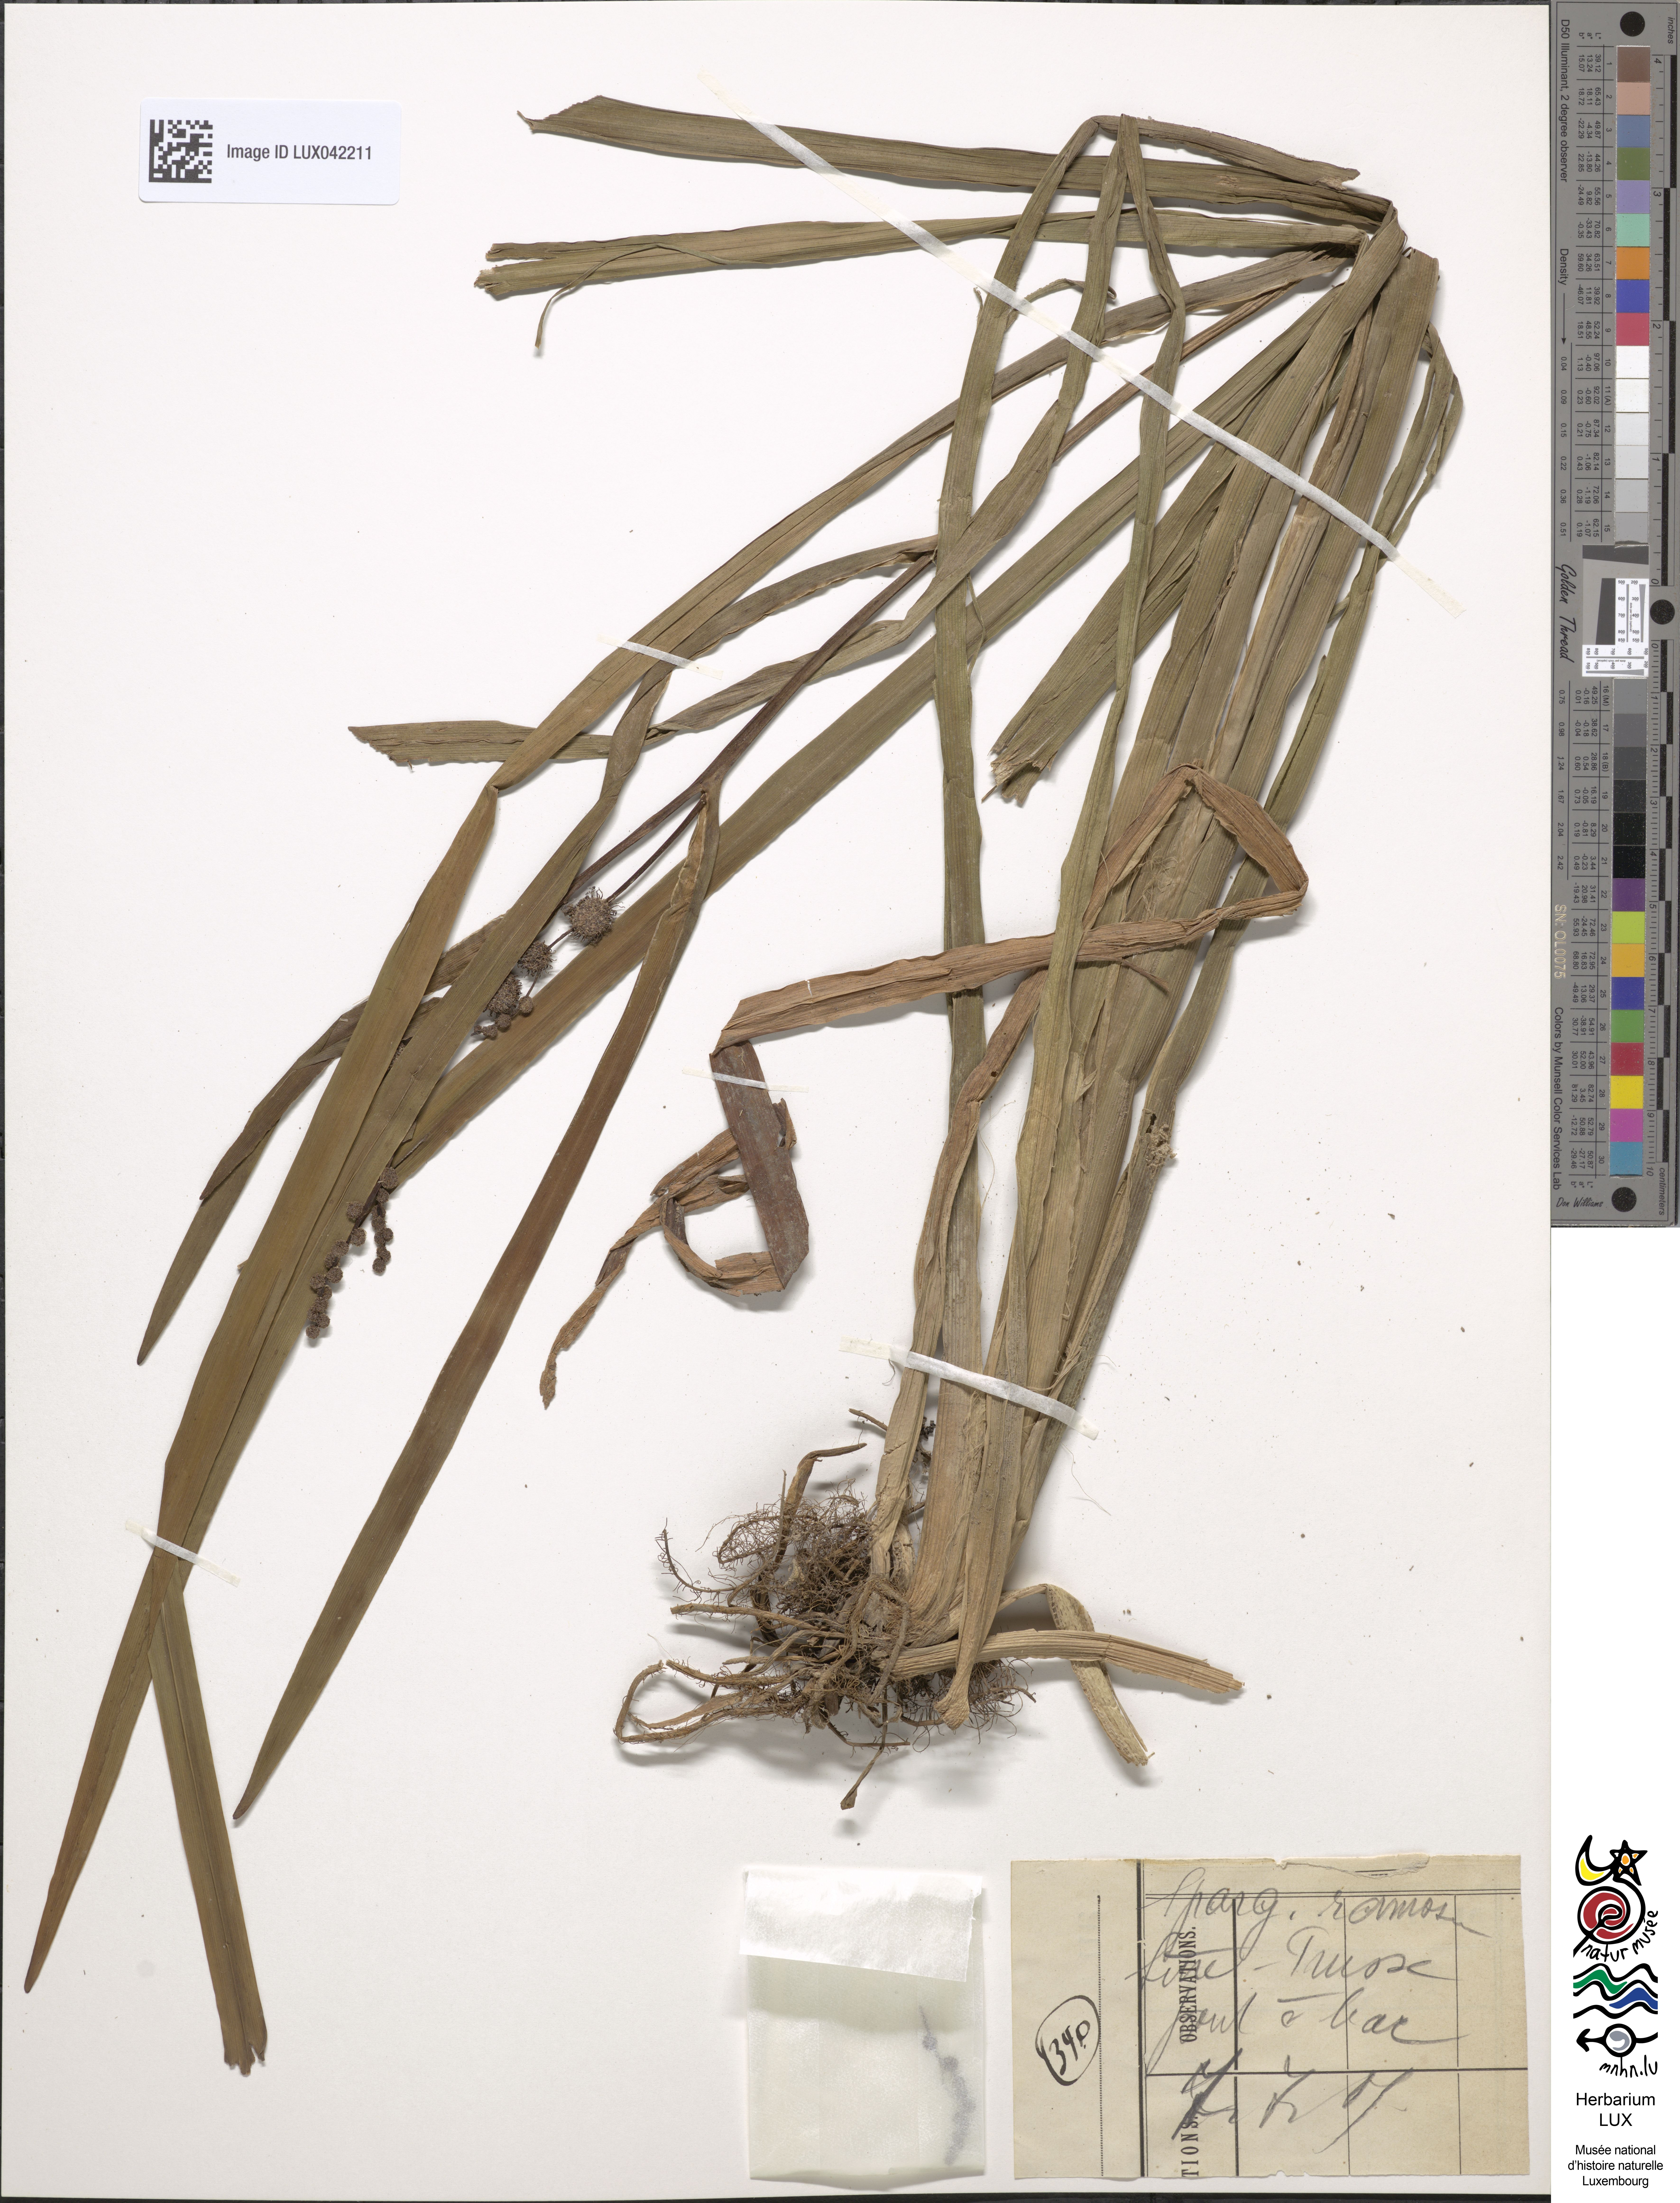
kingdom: Plantae
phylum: Tracheophyta
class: Liliopsida
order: Poales
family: Typhaceae
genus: Sparganium
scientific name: Sparganium erectum
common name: Branched bur-reed
